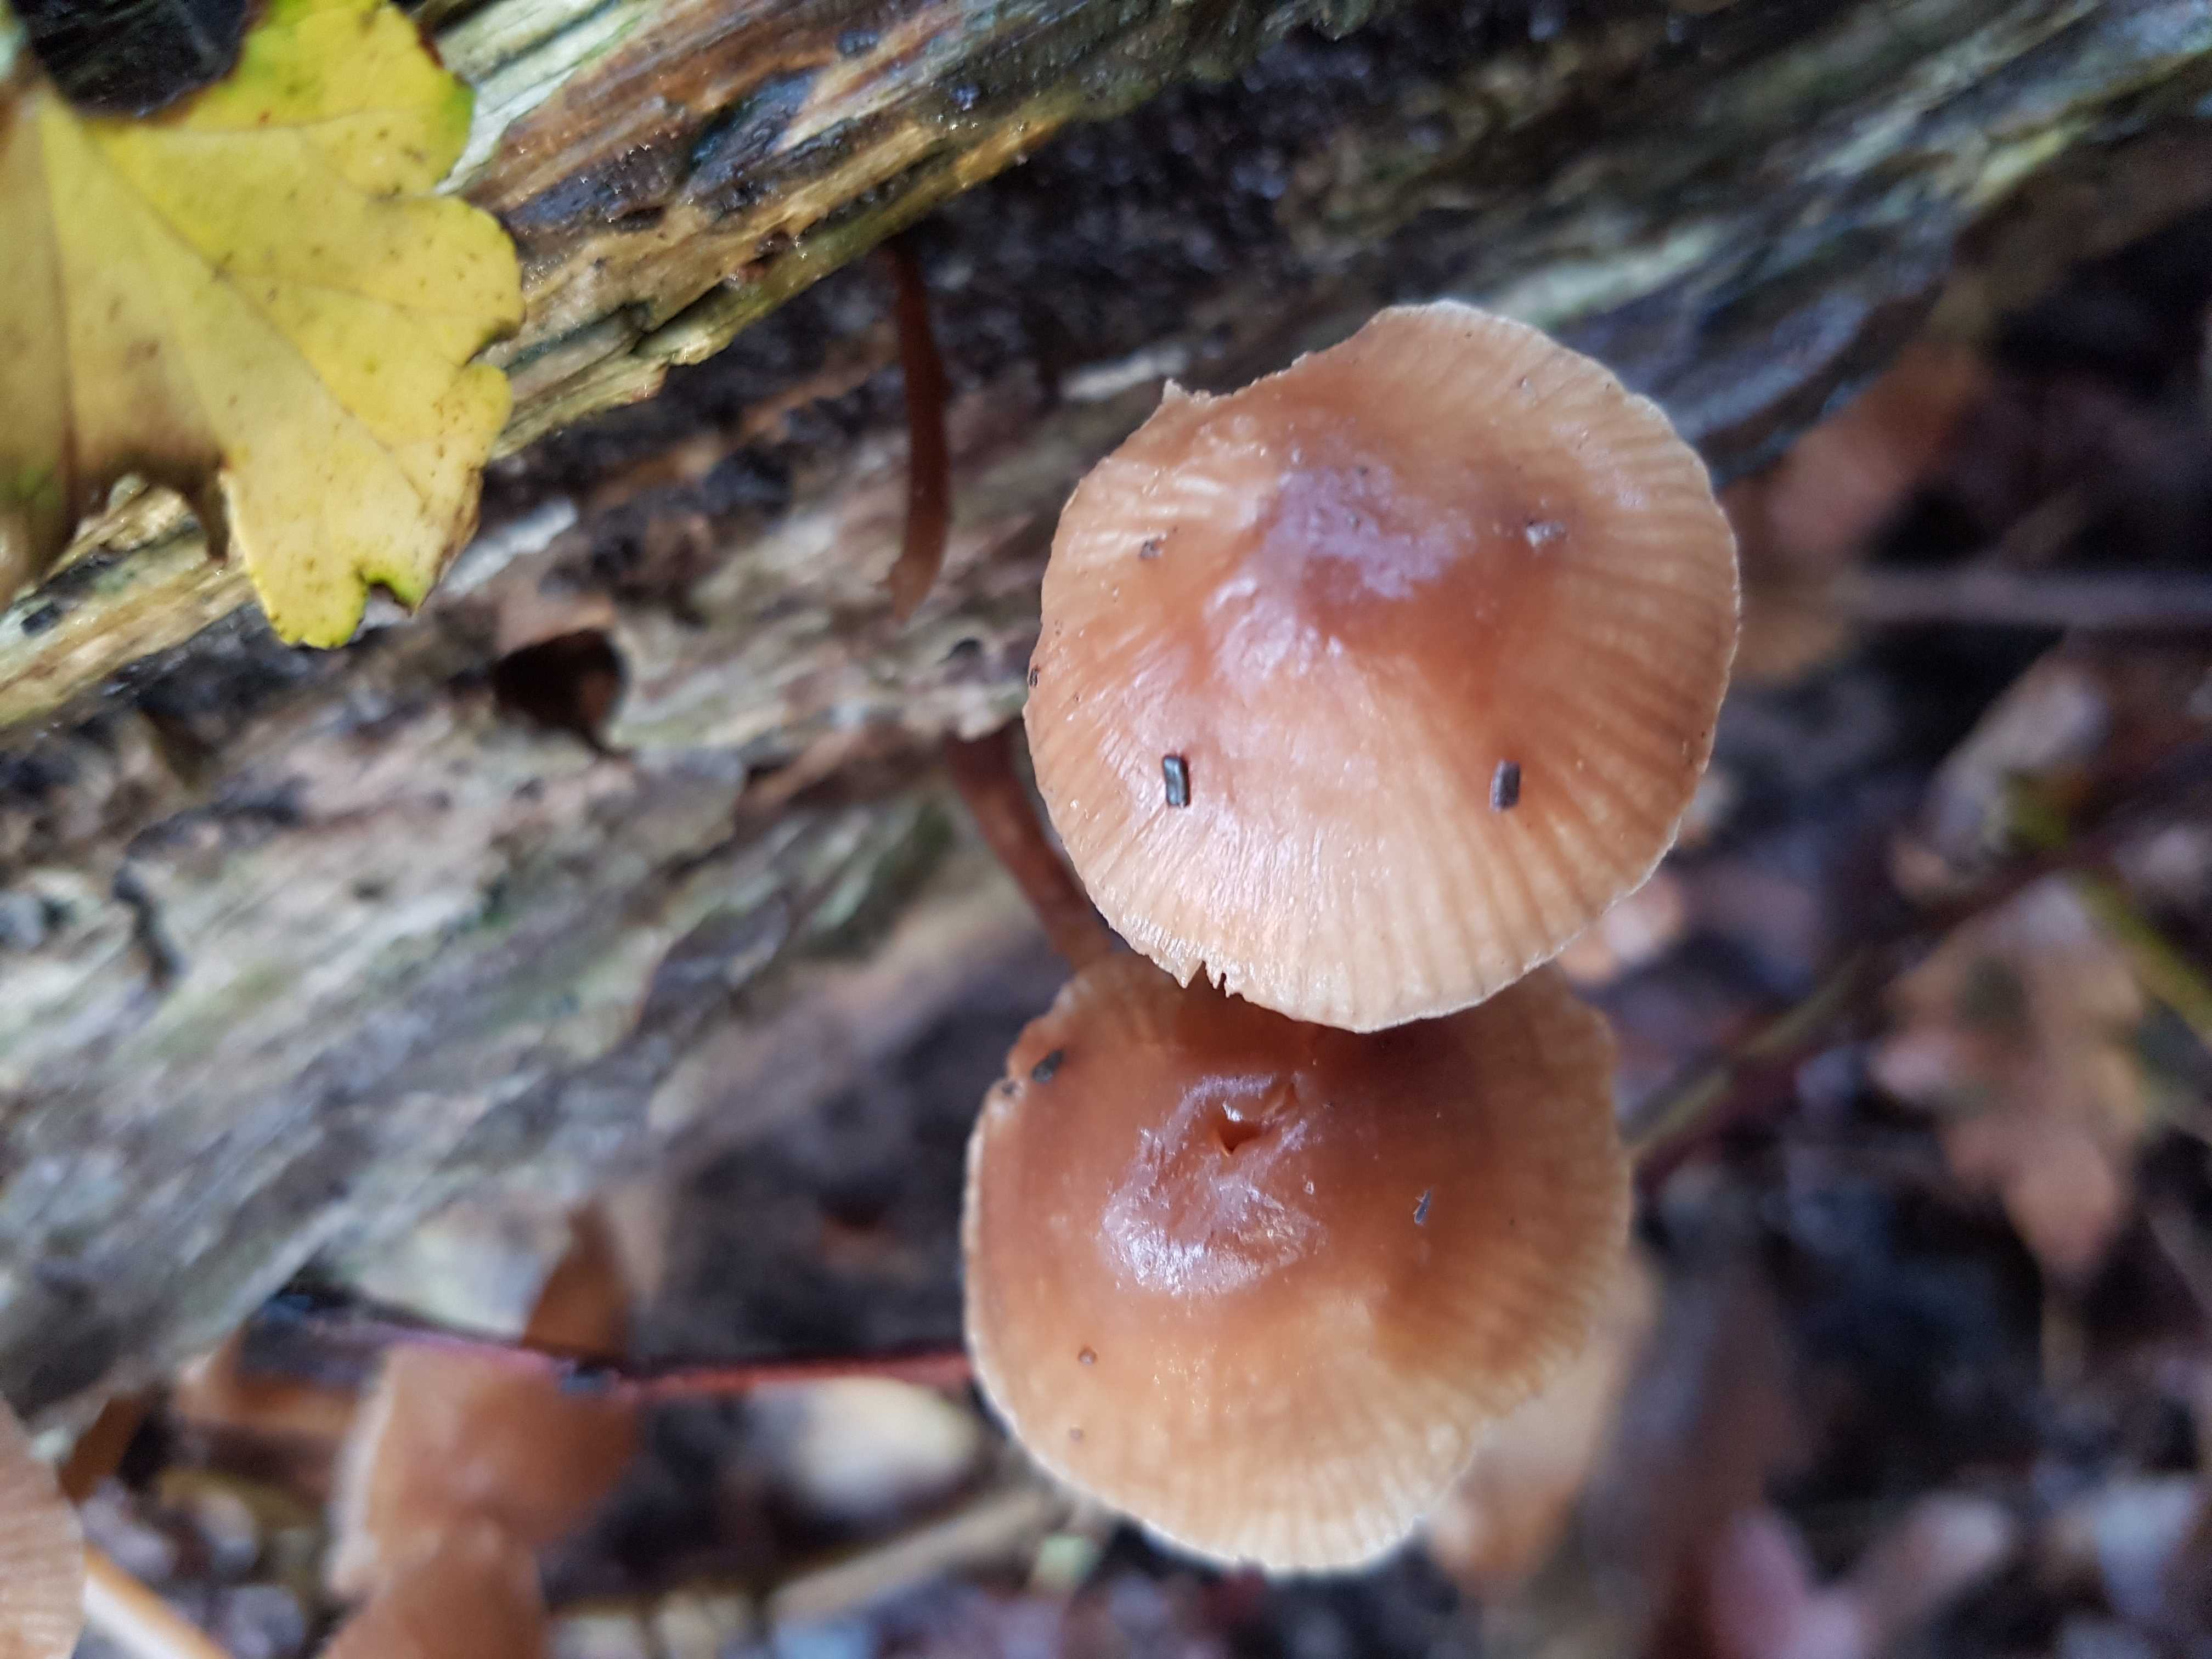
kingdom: Fungi
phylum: Basidiomycota
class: Agaricomycetes
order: Agaricales
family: Mycenaceae
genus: Mycena
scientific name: Mycena
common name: huesvamp
